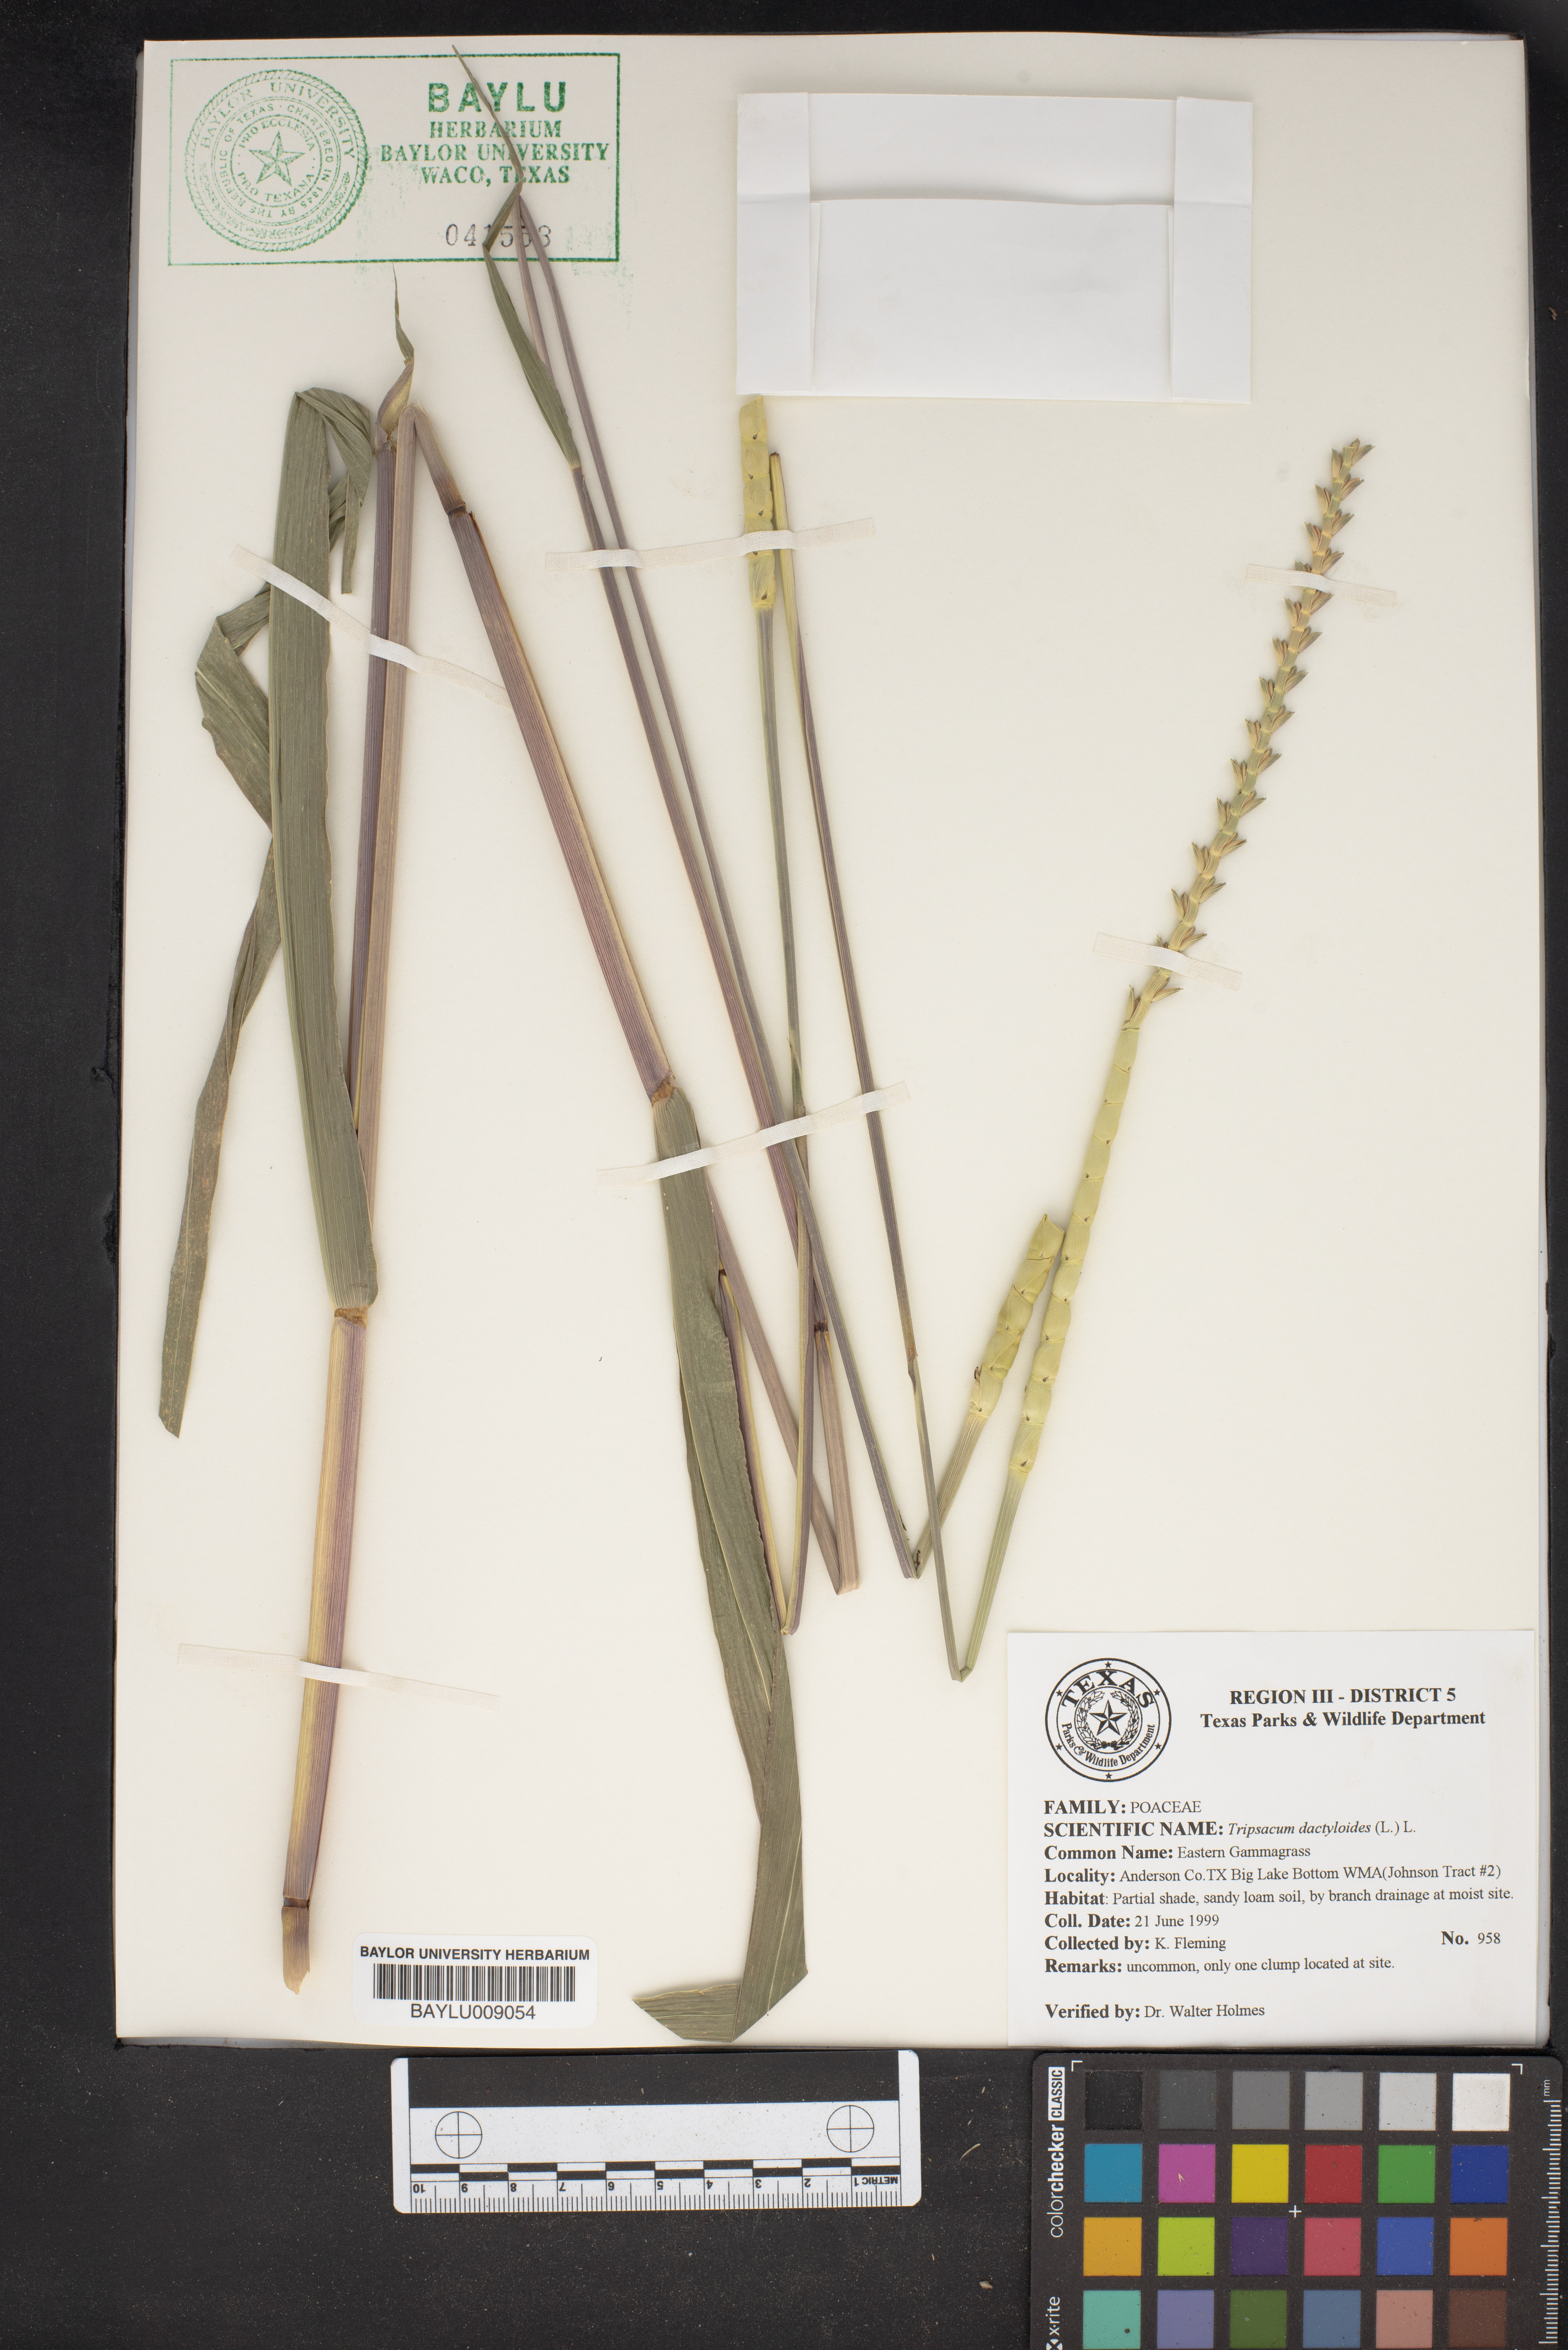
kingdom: Plantae
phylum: Tracheophyta
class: Liliopsida
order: Poales
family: Poaceae
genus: Tripsacum
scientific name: Tripsacum dactyloides
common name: Buffalo-grass
